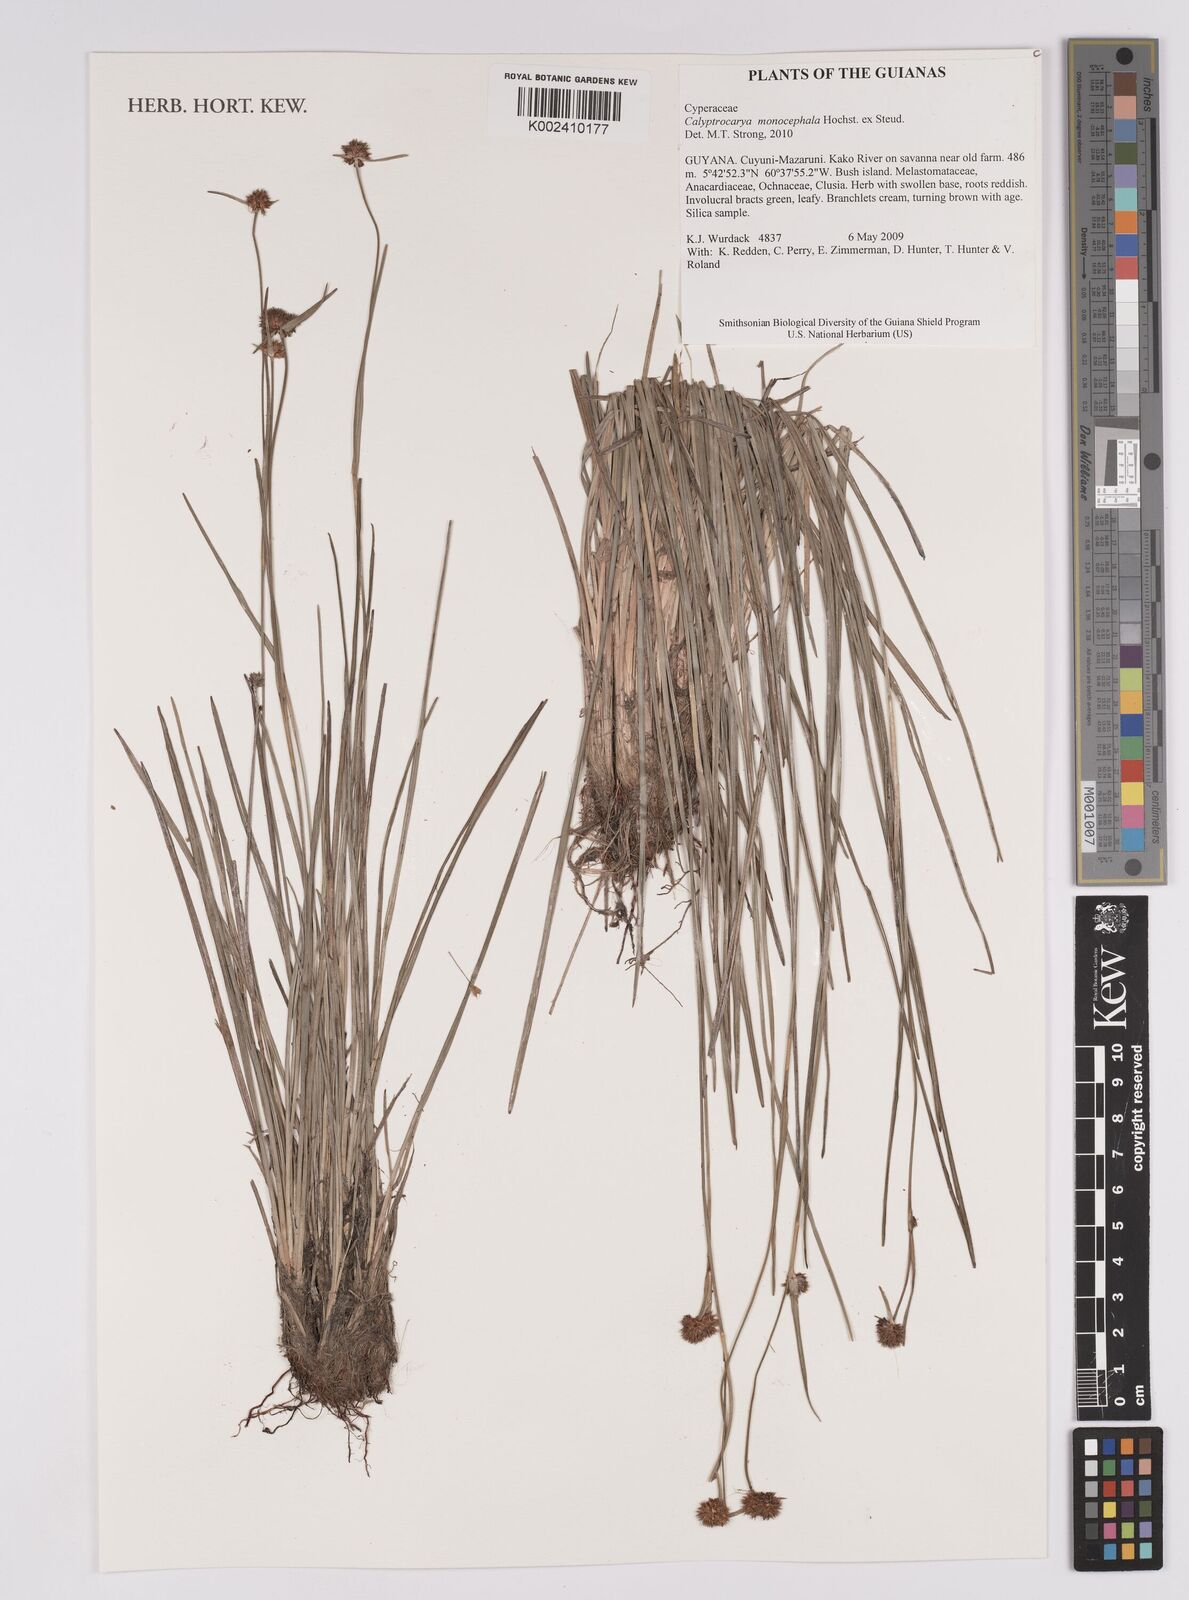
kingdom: Plantae
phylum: Tracheophyta
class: Liliopsida
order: Poales
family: Cyperaceae
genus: Calyptrocarya
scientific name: Calyptrocarya monocephala
